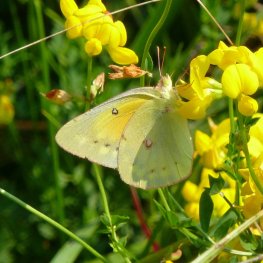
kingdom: Animalia
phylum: Arthropoda
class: Insecta
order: Lepidoptera
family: Pieridae
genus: Colias
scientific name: Colias eurytheme
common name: Orange Sulphur
